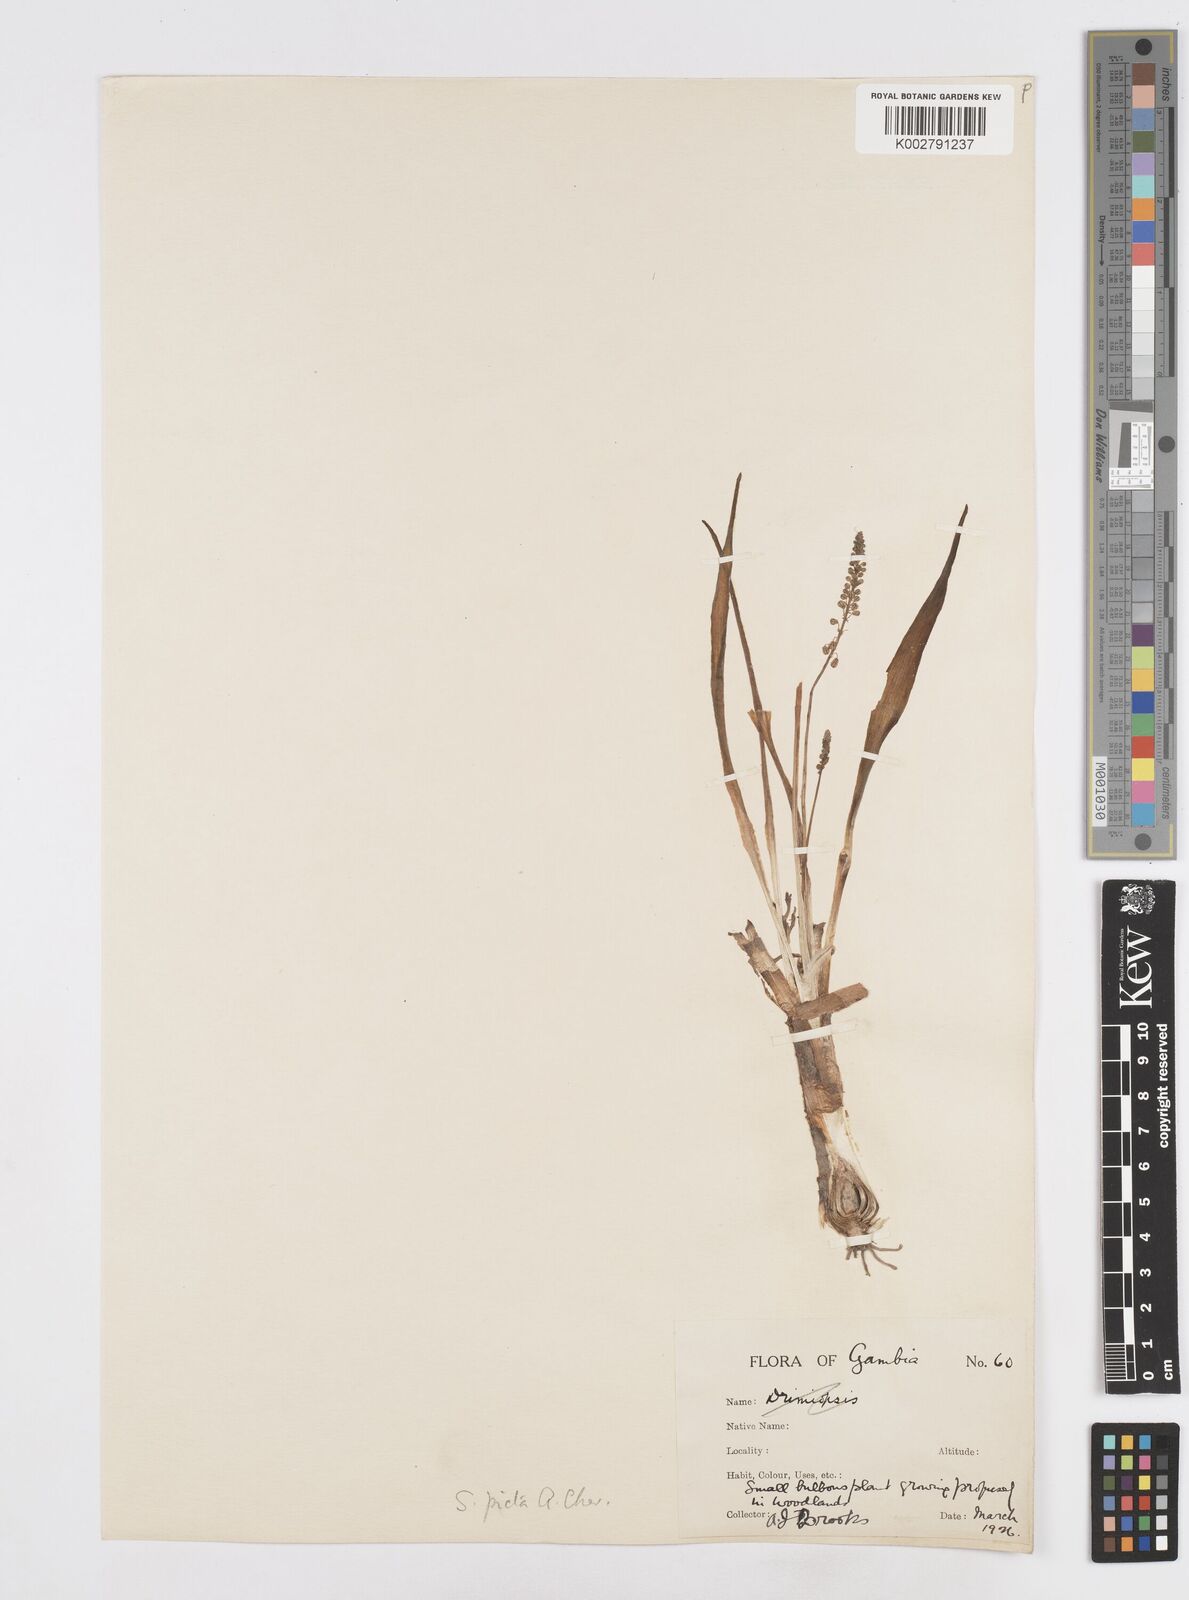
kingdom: Plantae
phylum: Tracheophyta
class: Liliopsida
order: Asparagales
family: Asparagaceae
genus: Ledebouria
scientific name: Ledebouria sudanica
